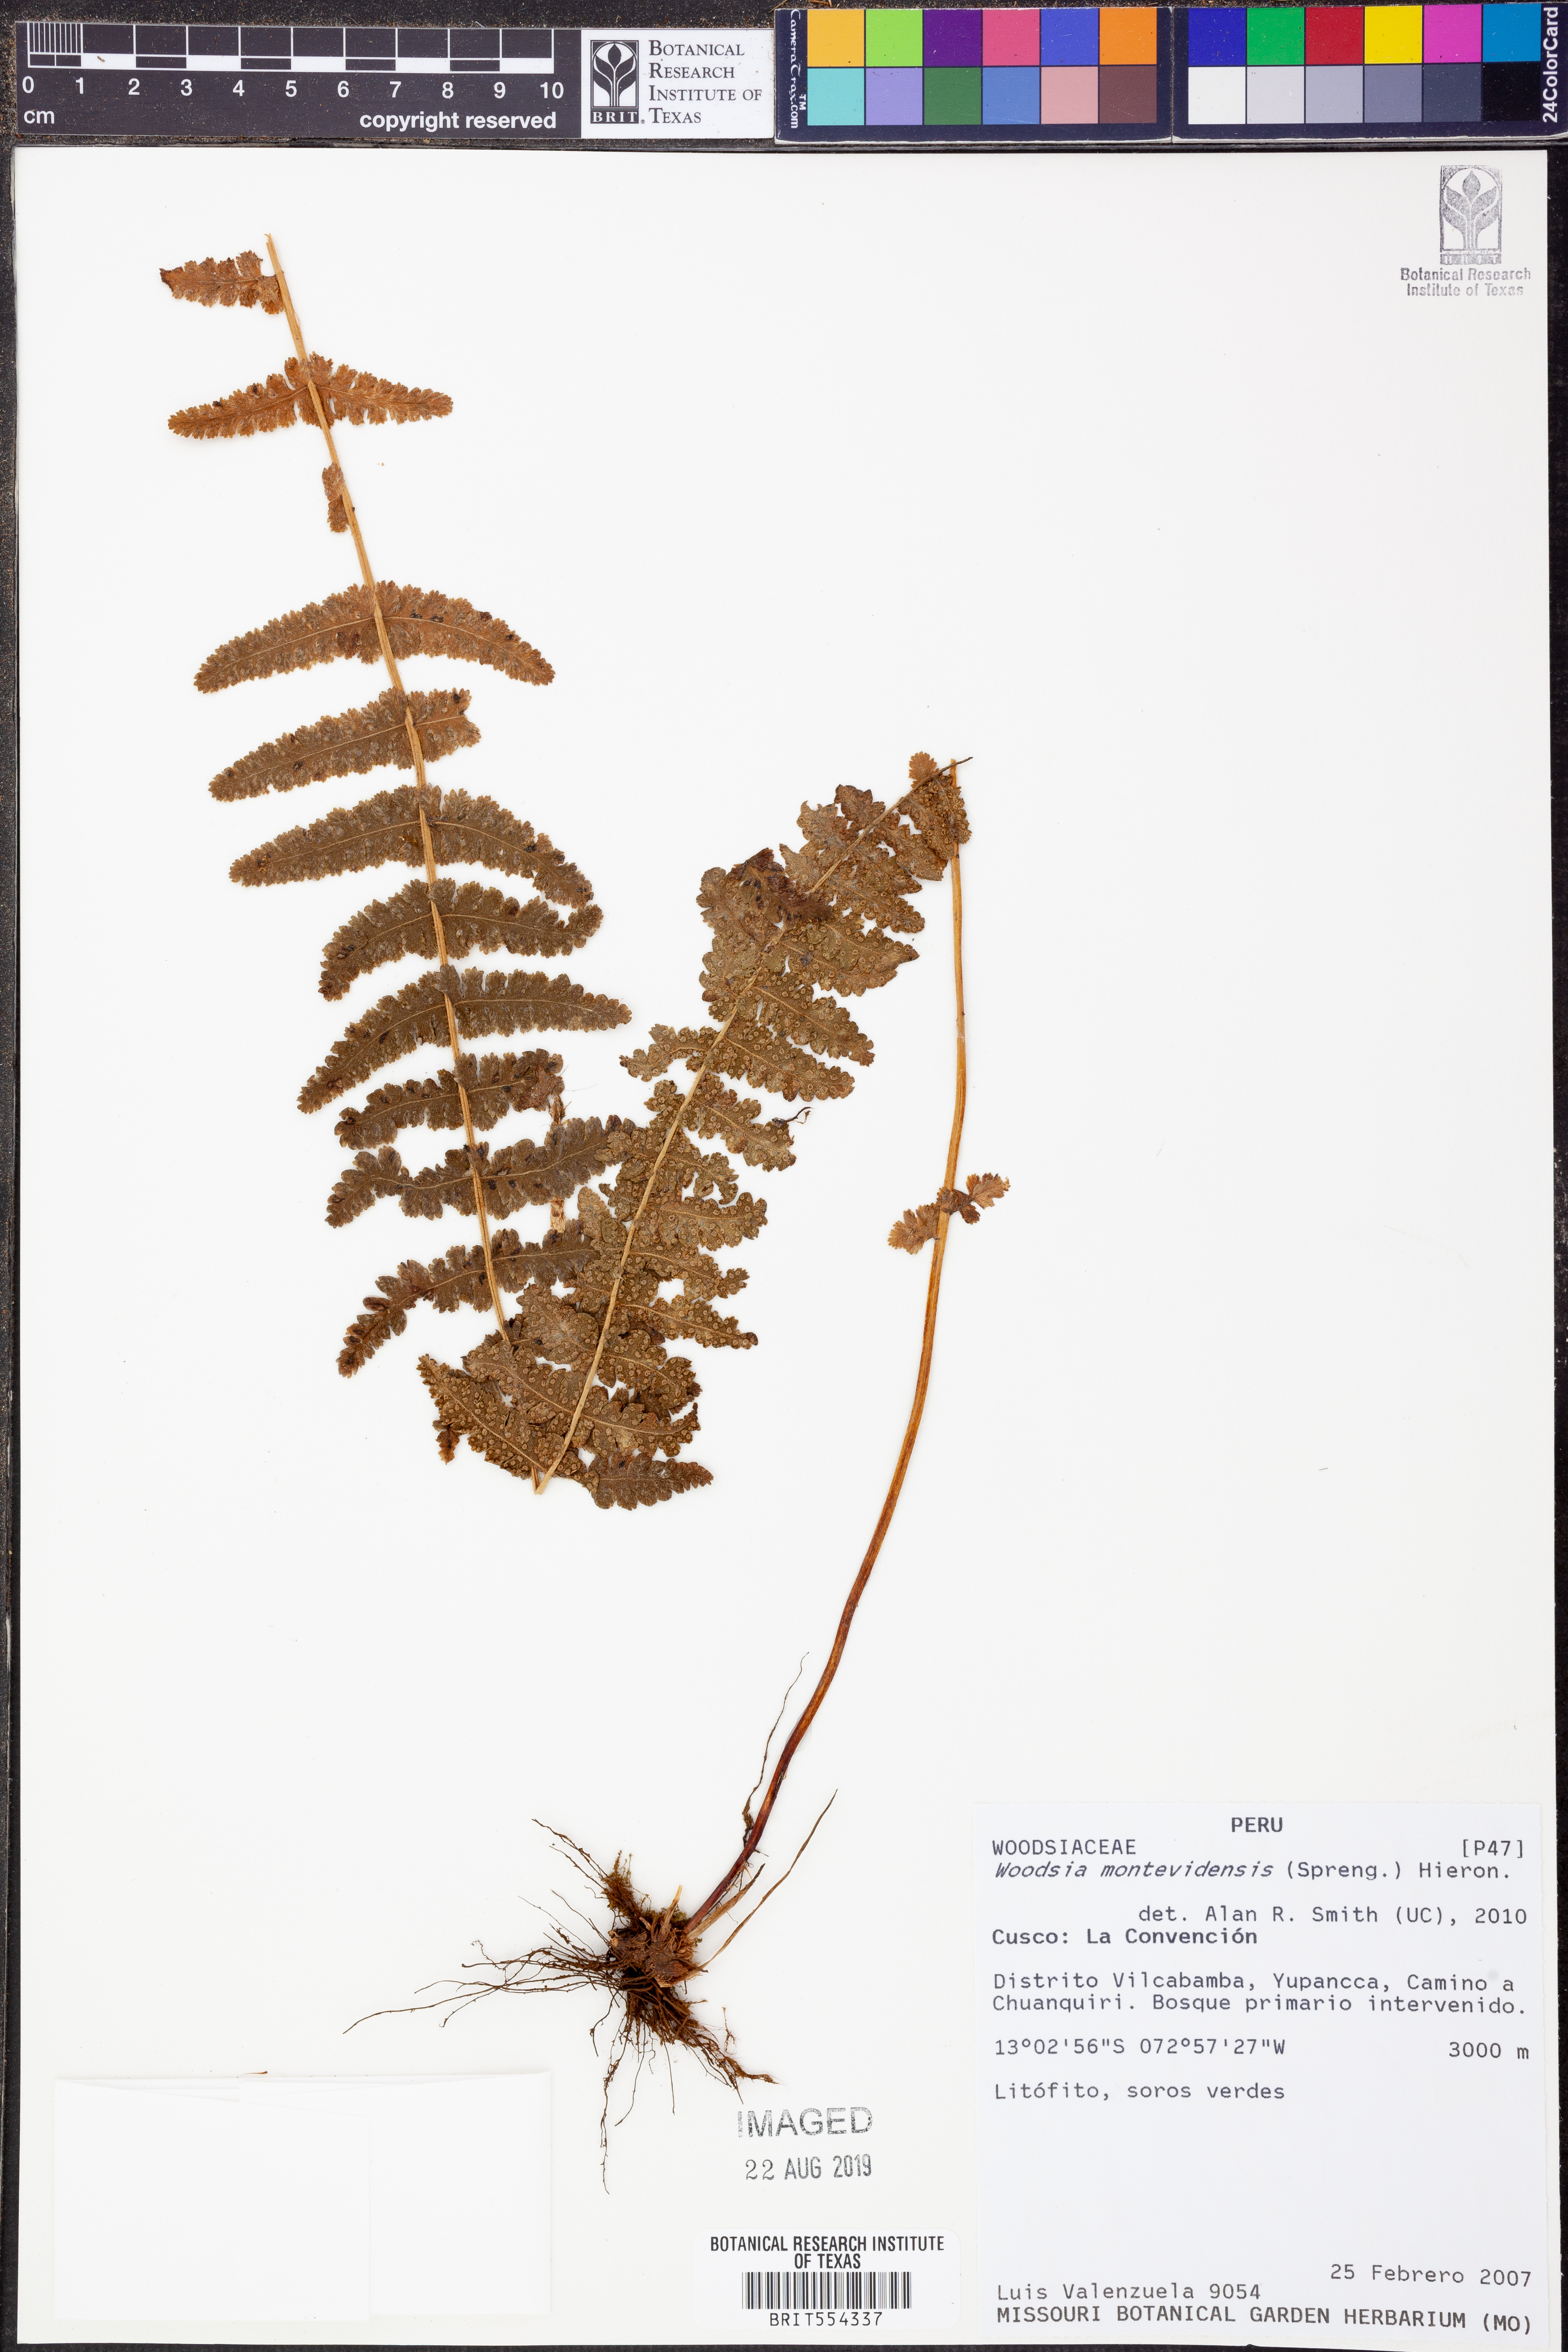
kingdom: Plantae
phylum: Tracheophyta
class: Polypodiopsida
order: Polypodiales
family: Woodsiaceae
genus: Physematium
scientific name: Physematium montevidense
